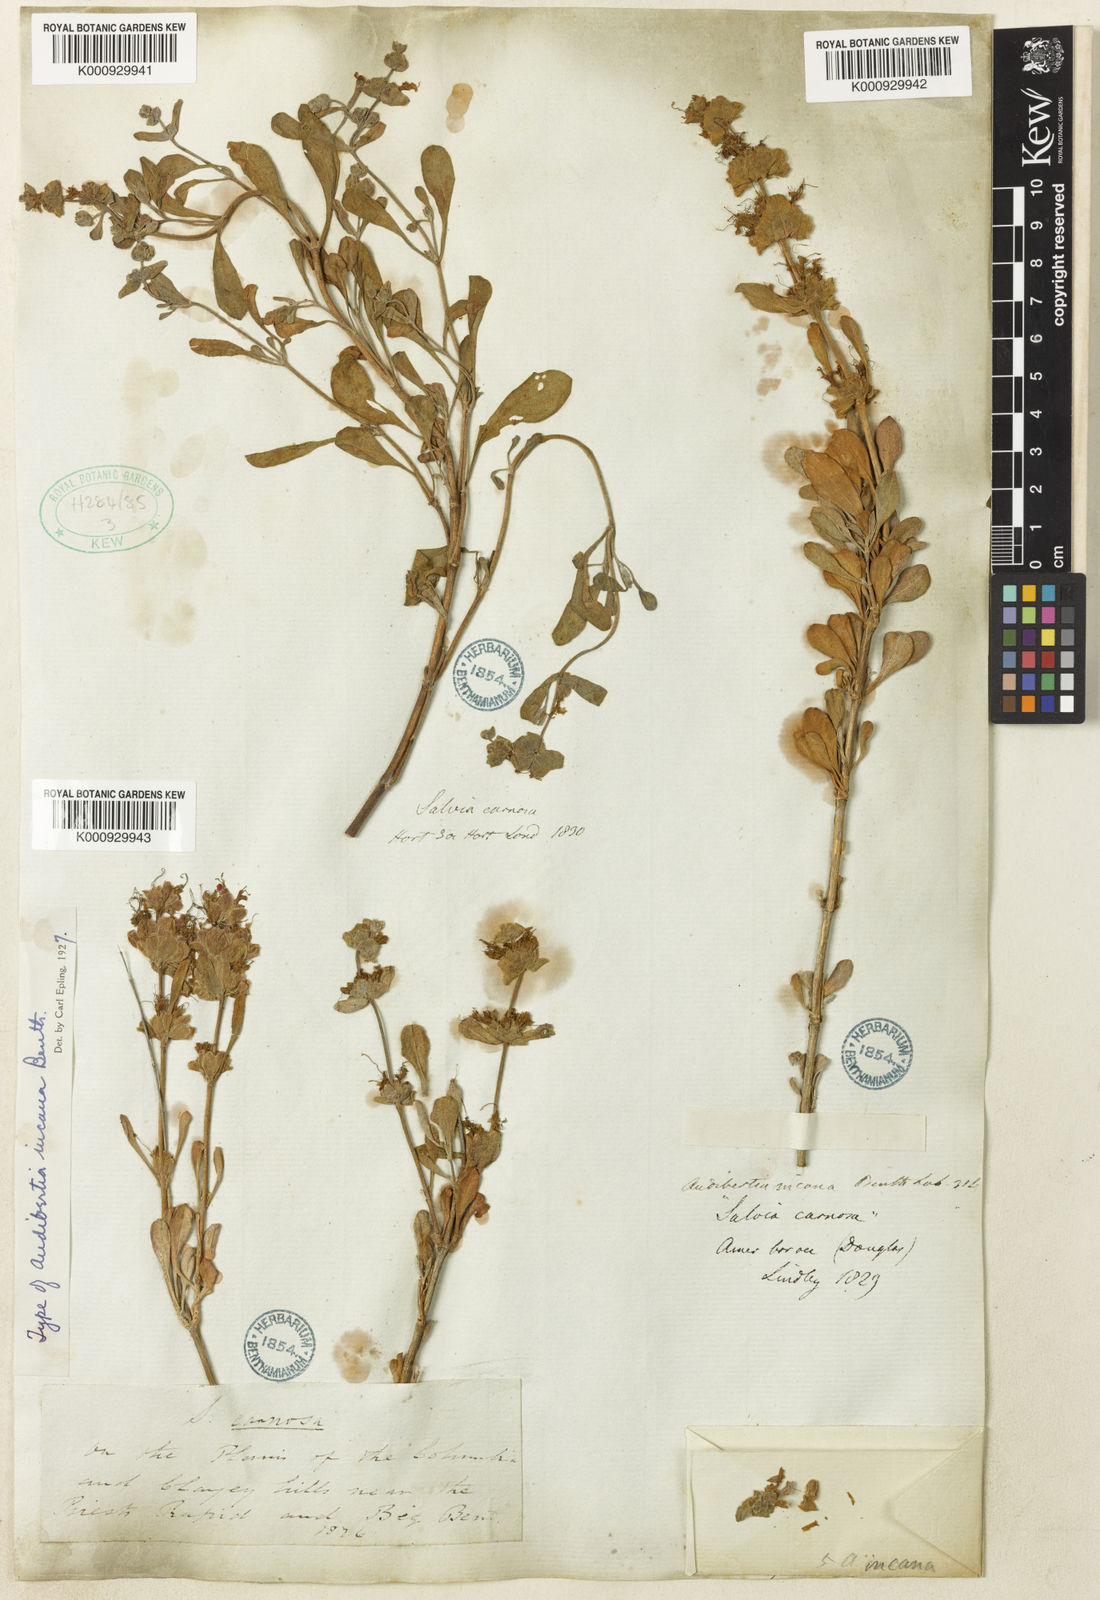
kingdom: Plantae
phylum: Tracheophyta
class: Magnoliopsida
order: Lamiales
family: Lamiaceae
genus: Salvia
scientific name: Salvia
